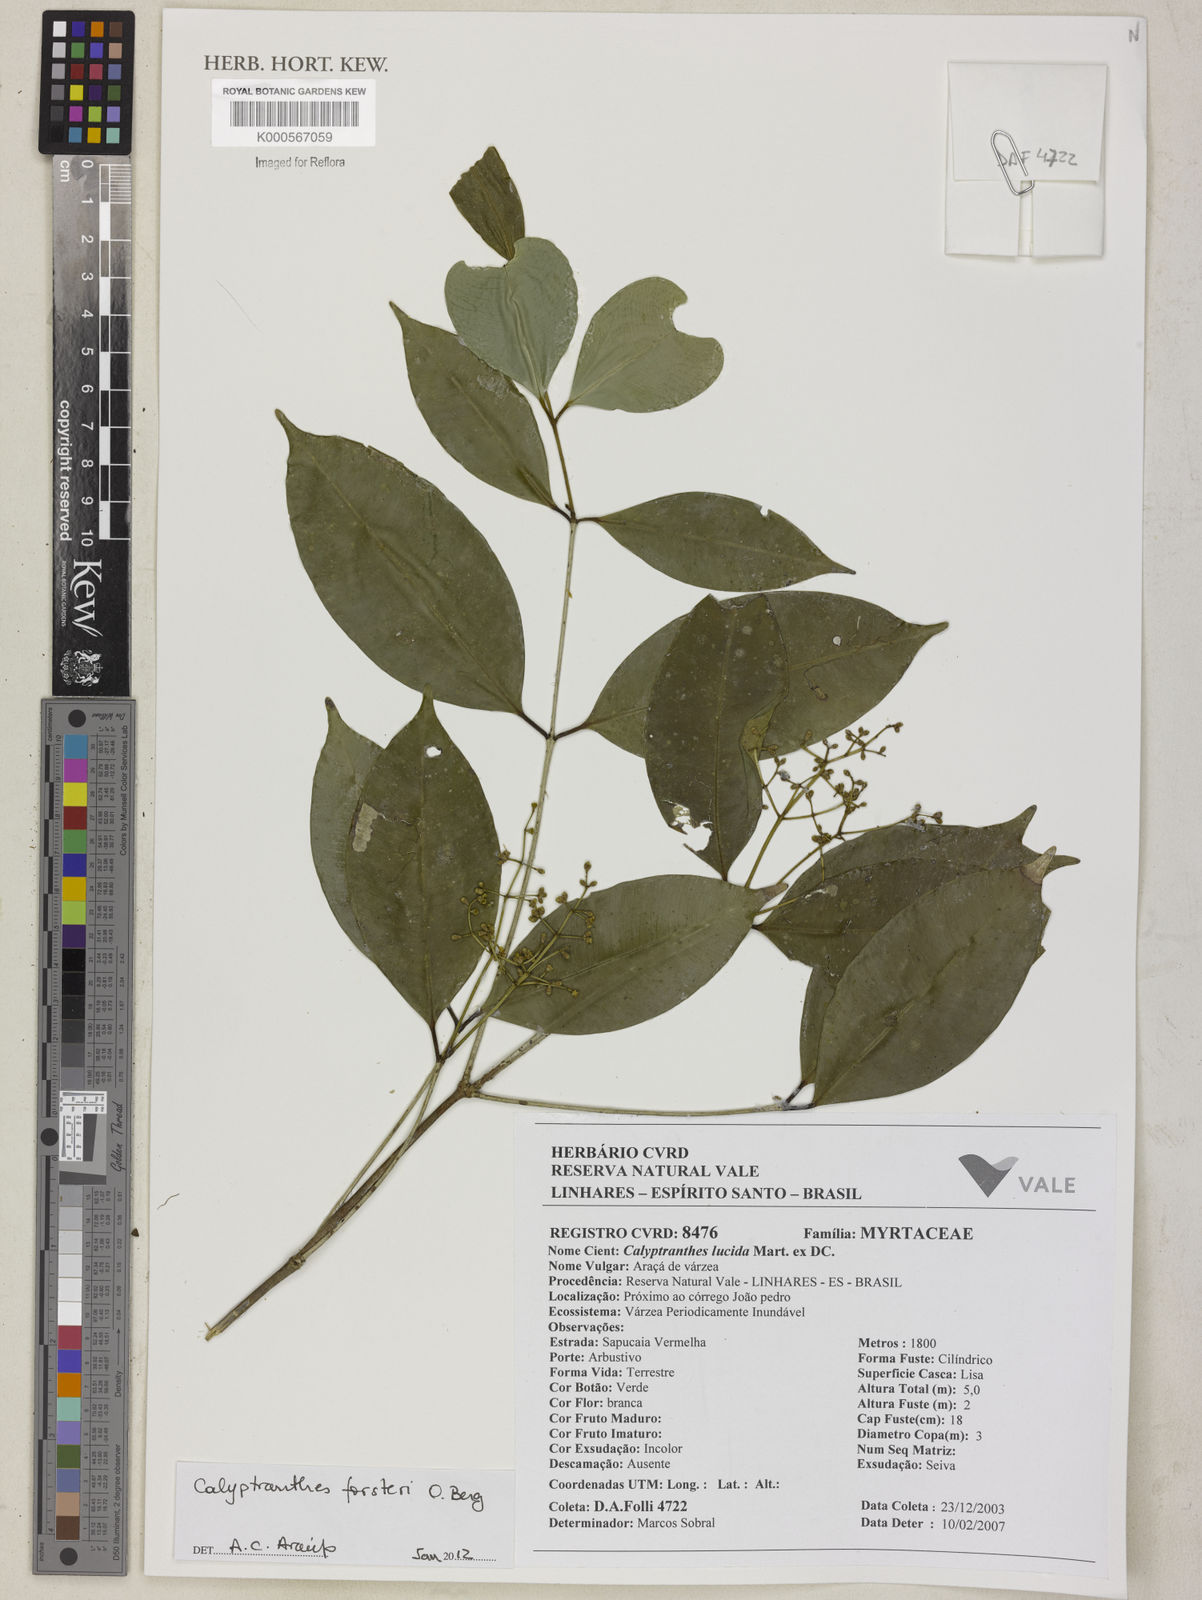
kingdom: Plantae
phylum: Tracheophyta
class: Magnoliopsida
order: Myrtales
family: Myrtaceae
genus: Myrcia
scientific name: Myrcia neolucida
